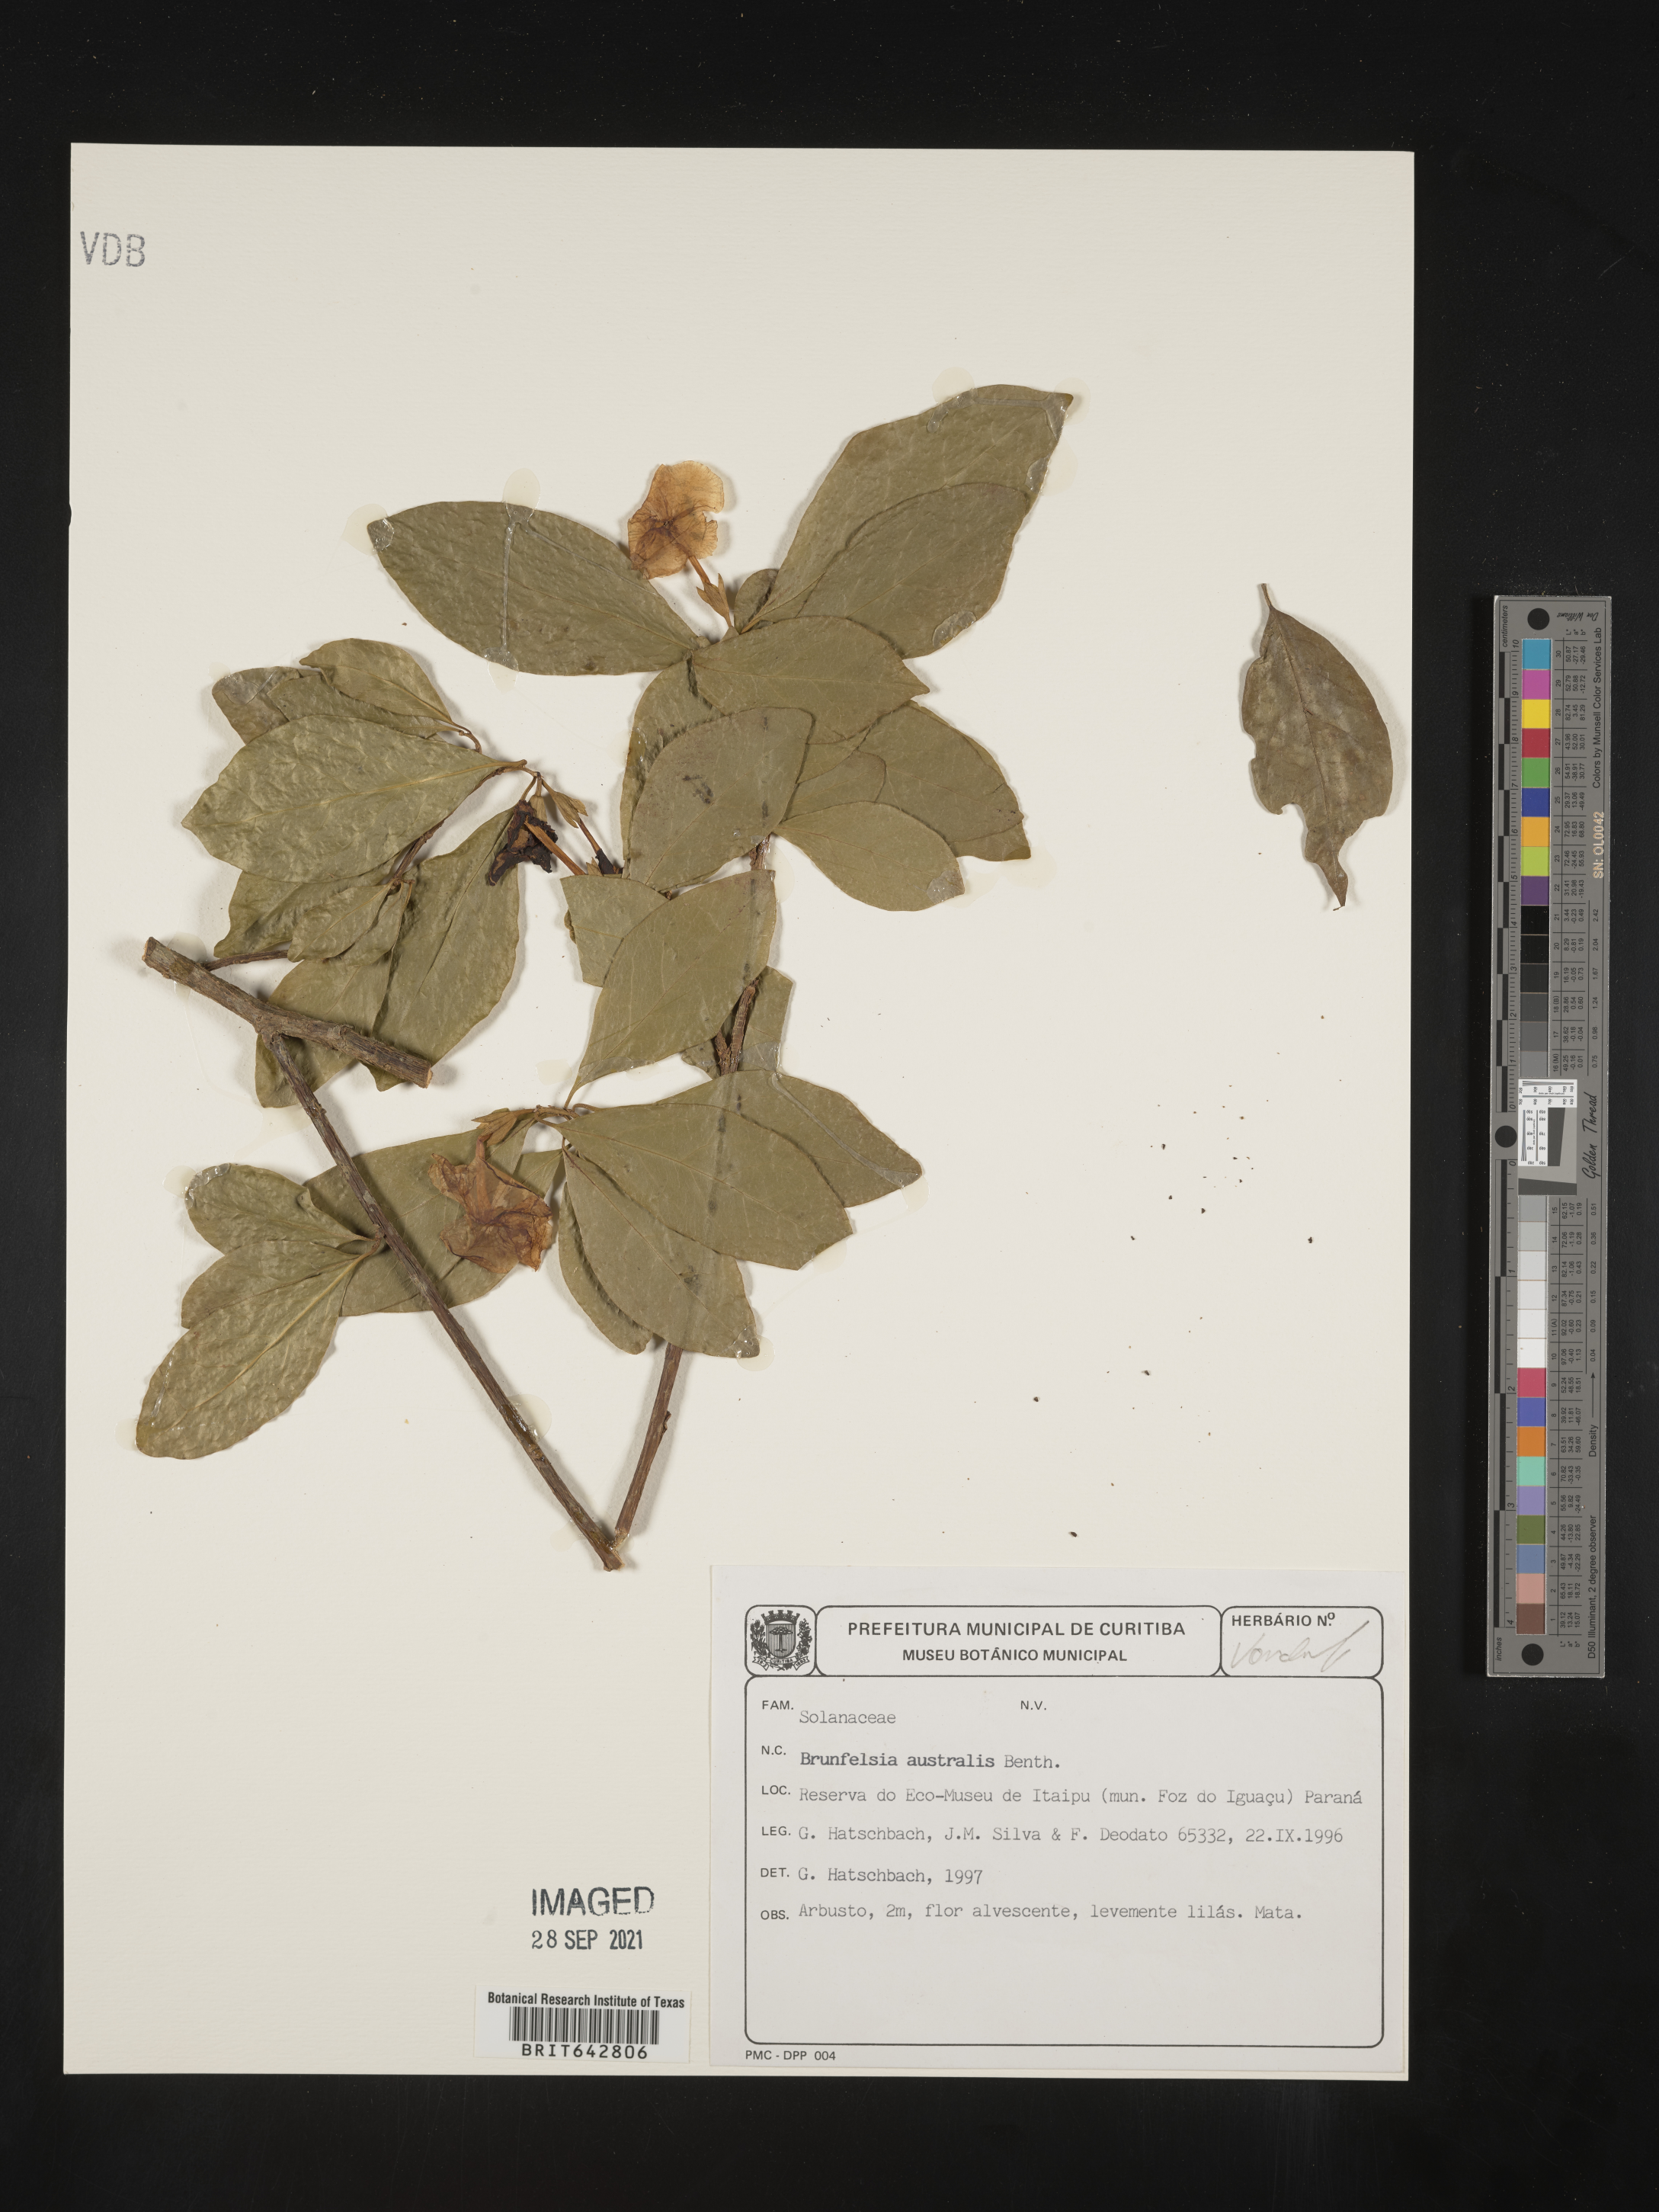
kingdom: Plantae
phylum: Tracheophyta
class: Magnoliopsida
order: Solanales
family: Solanaceae
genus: Brunfelsia
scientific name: Brunfelsia
